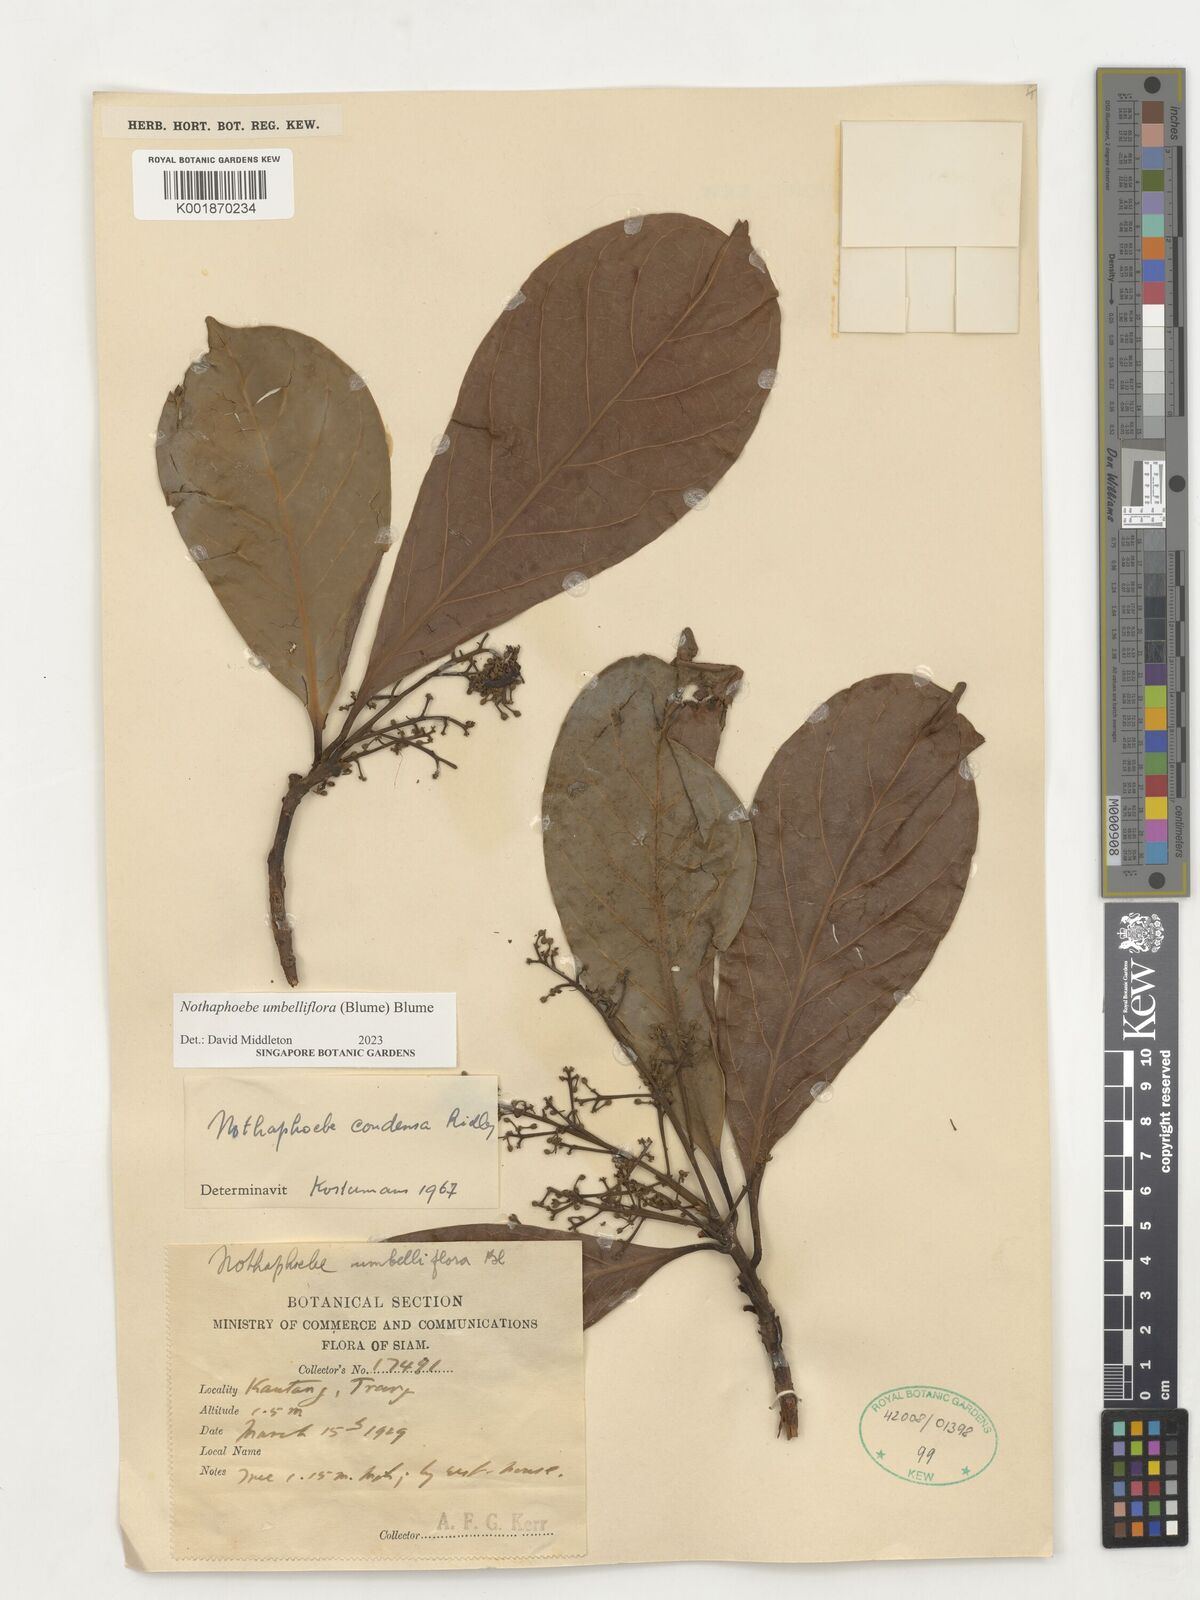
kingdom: Plantae
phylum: Tracheophyta
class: Magnoliopsida
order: Laurales
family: Lauraceae
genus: Nothaphoebe
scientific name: Nothaphoebe umbelliflora
